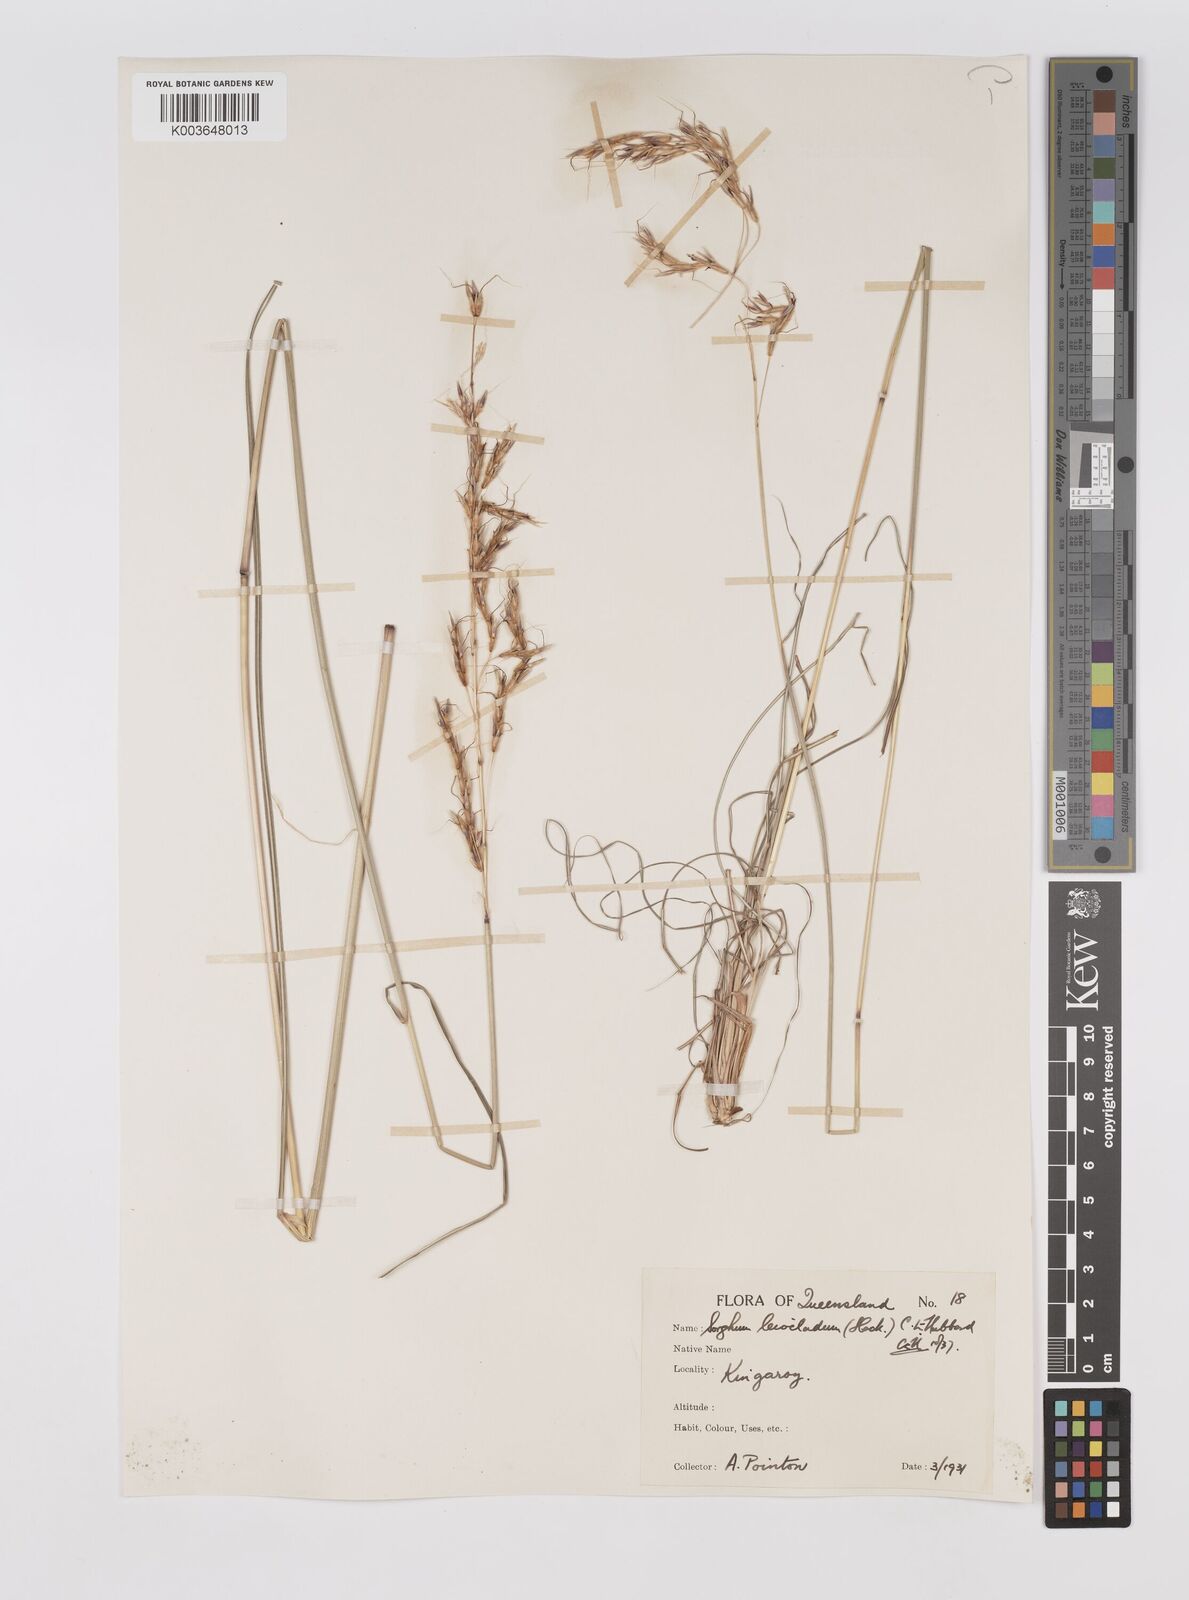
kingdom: Plantae
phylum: Tracheophyta
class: Liliopsida
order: Poales
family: Poaceae
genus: Sarga
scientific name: Sarga leioclada
